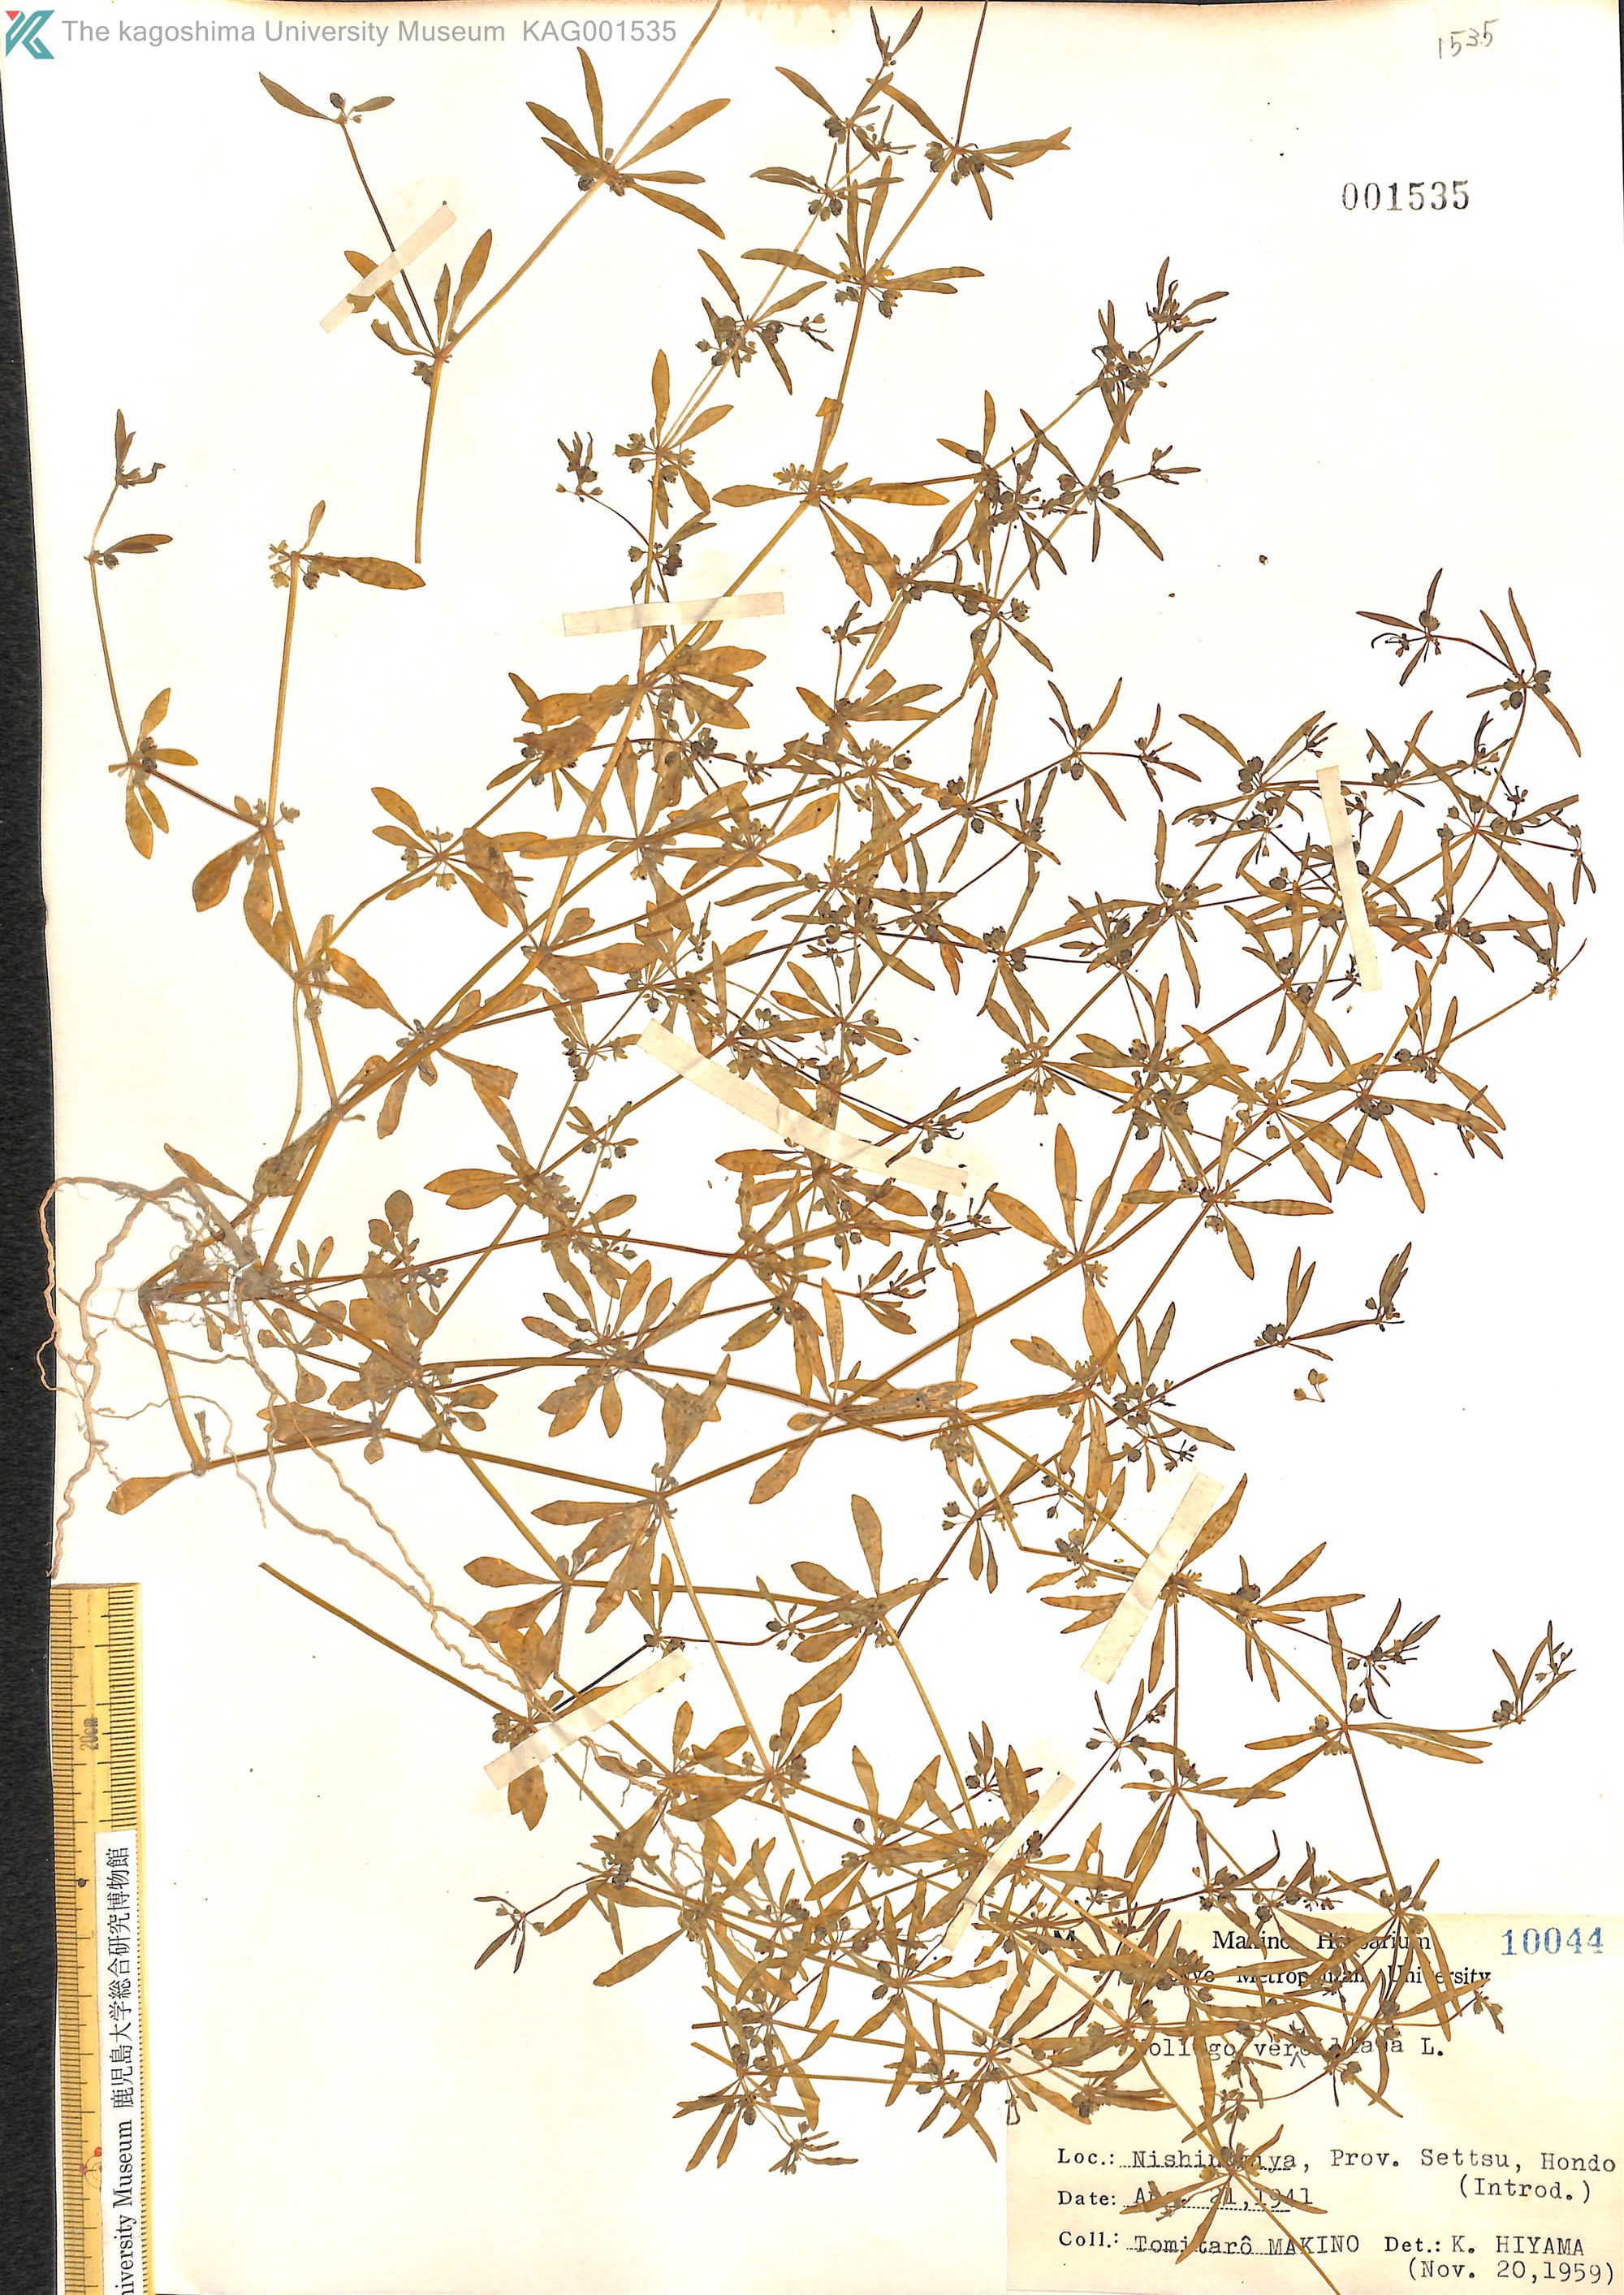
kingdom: Plantae
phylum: Tracheophyta
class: Magnoliopsida
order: Caryophyllales
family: Molluginaceae
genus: Mollugo
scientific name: Mollugo verticillata
